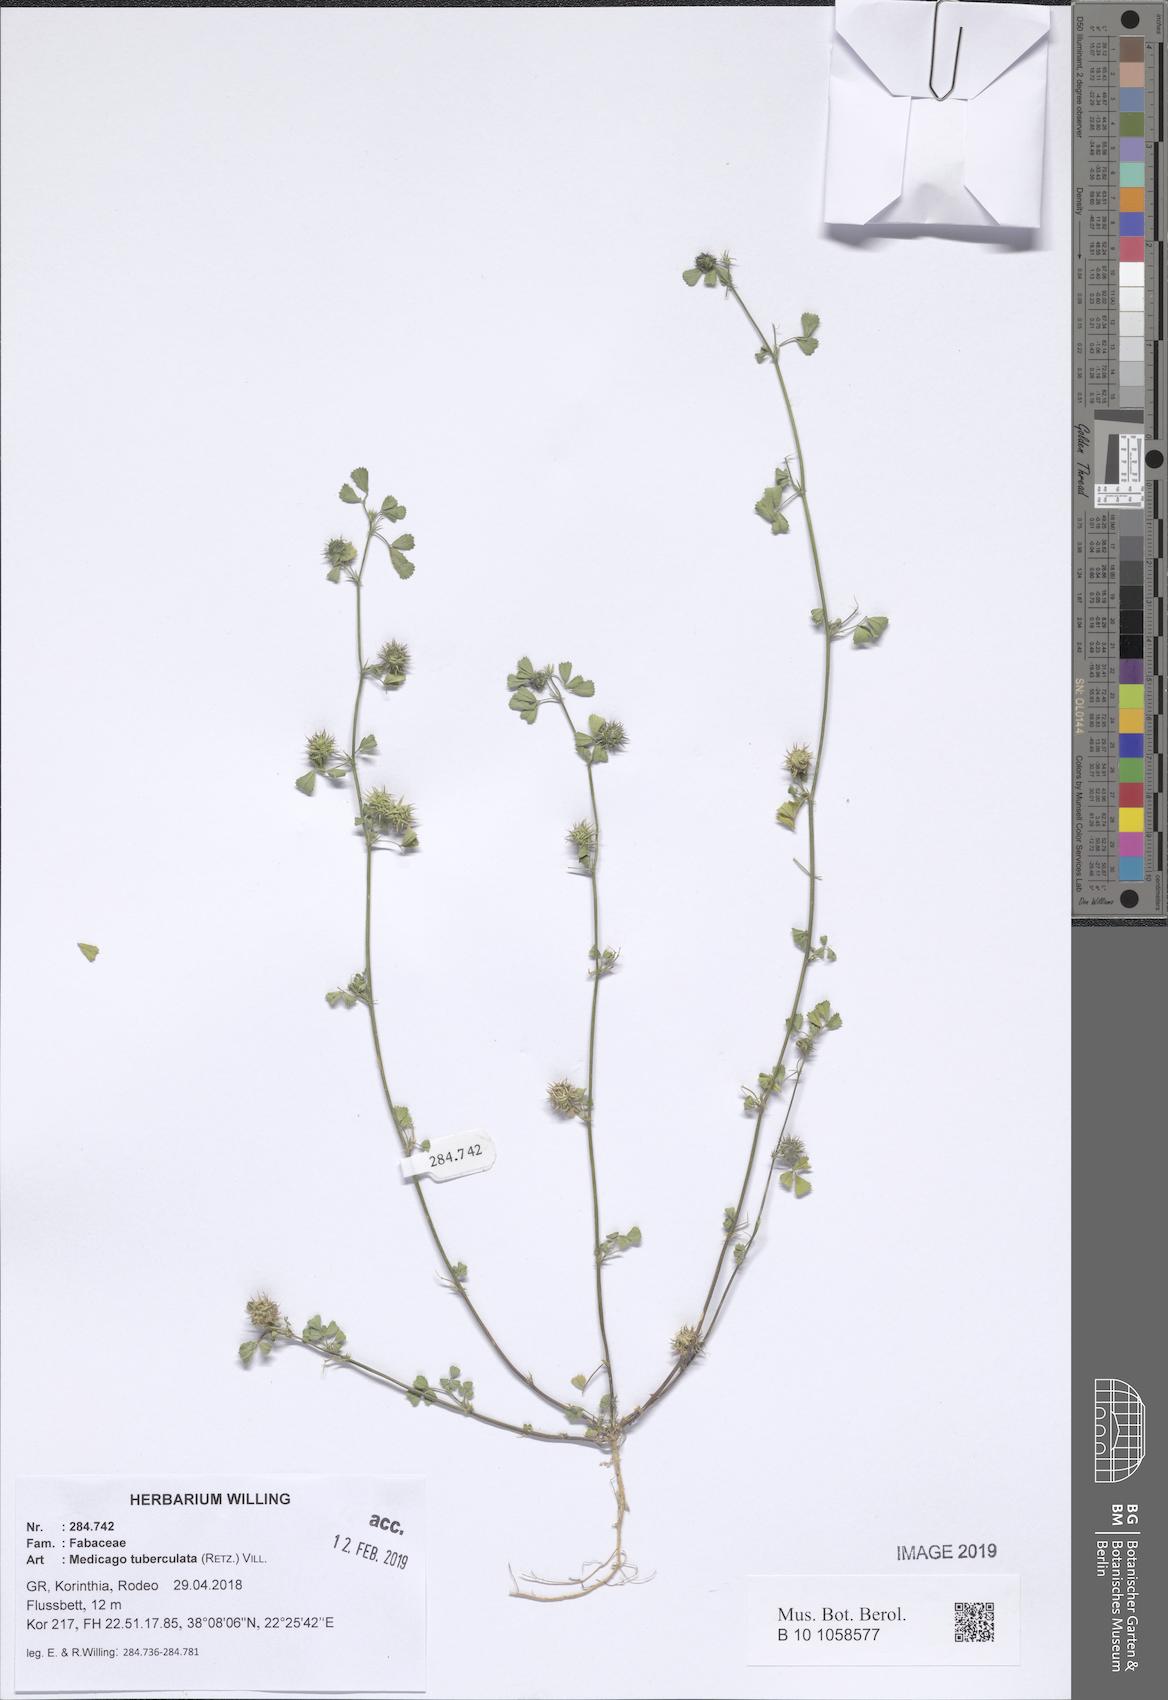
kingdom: Plantae
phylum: Tracheophyta
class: Magnoliopsida
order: Fabales
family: Fabaceae
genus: Medicago
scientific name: Medicago turbinata
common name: Southern medick
